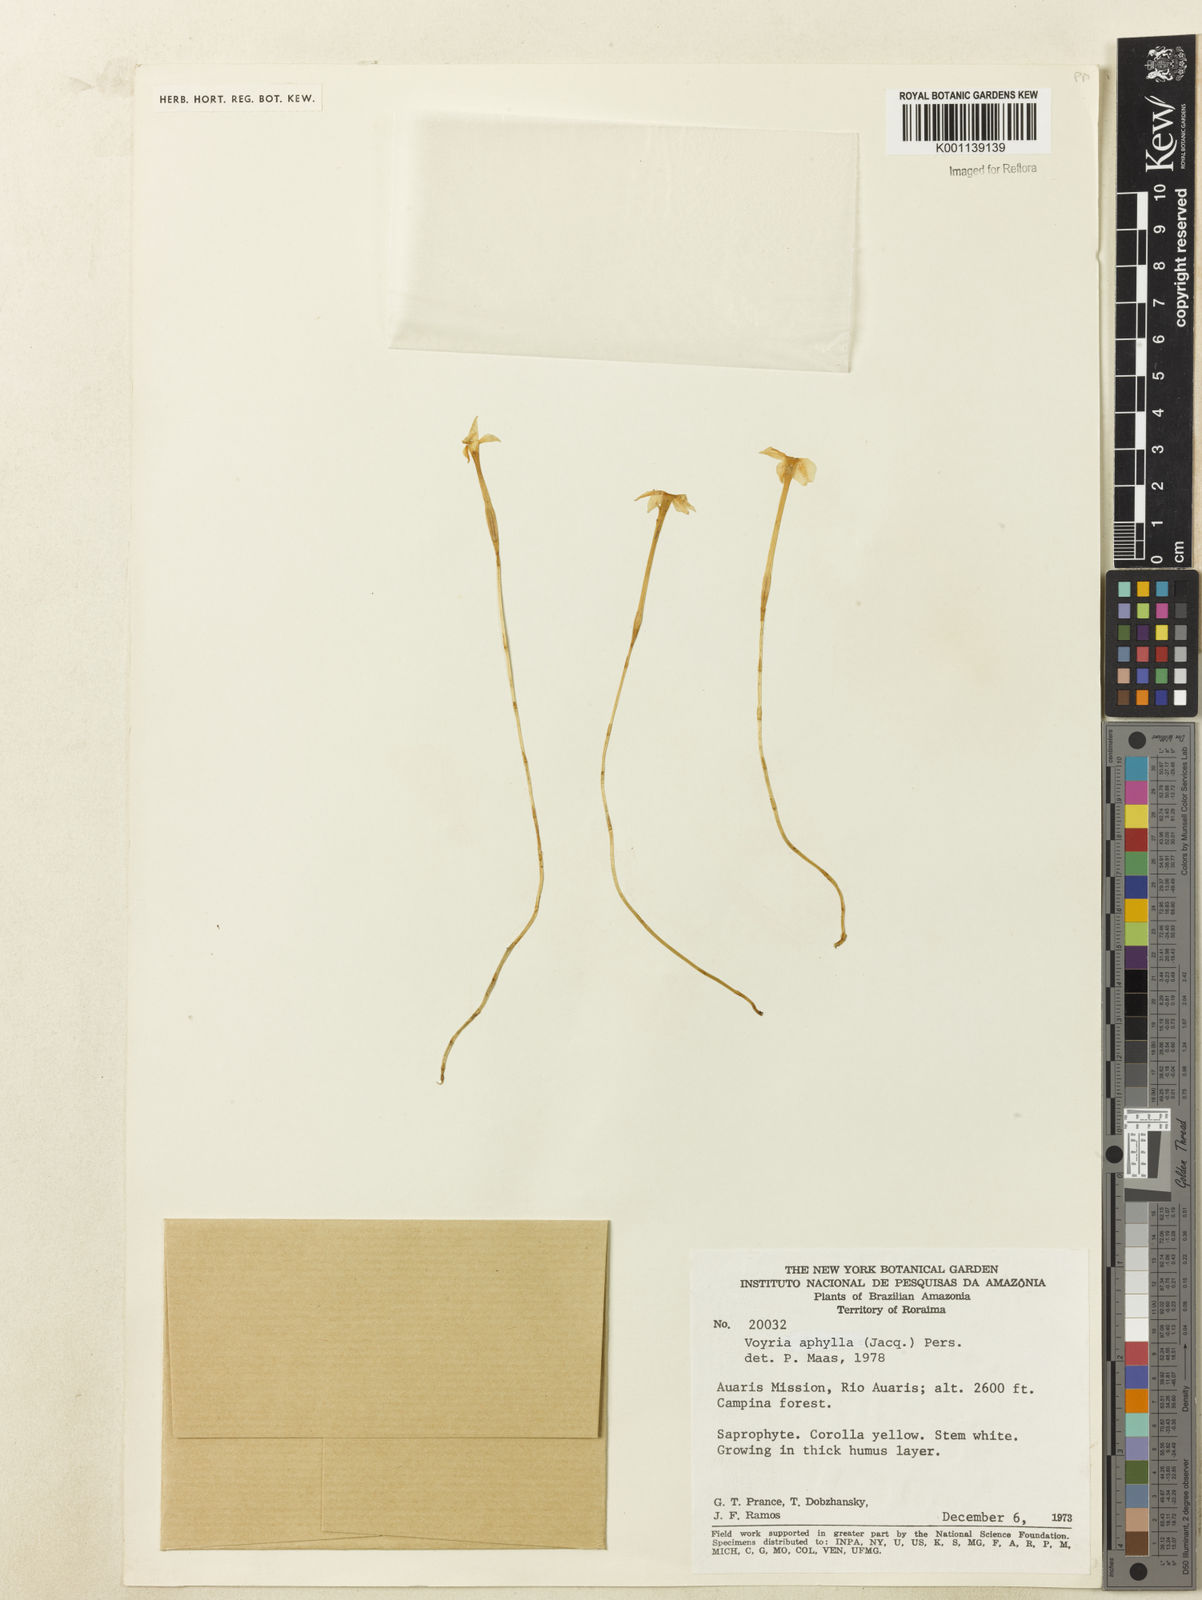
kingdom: Plantae
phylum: Tracheophyta
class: Magnoliopsida
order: Gentianales
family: Gentianaceae
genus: Voyria
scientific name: Voyria aphylla
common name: Leafless ghost plant
